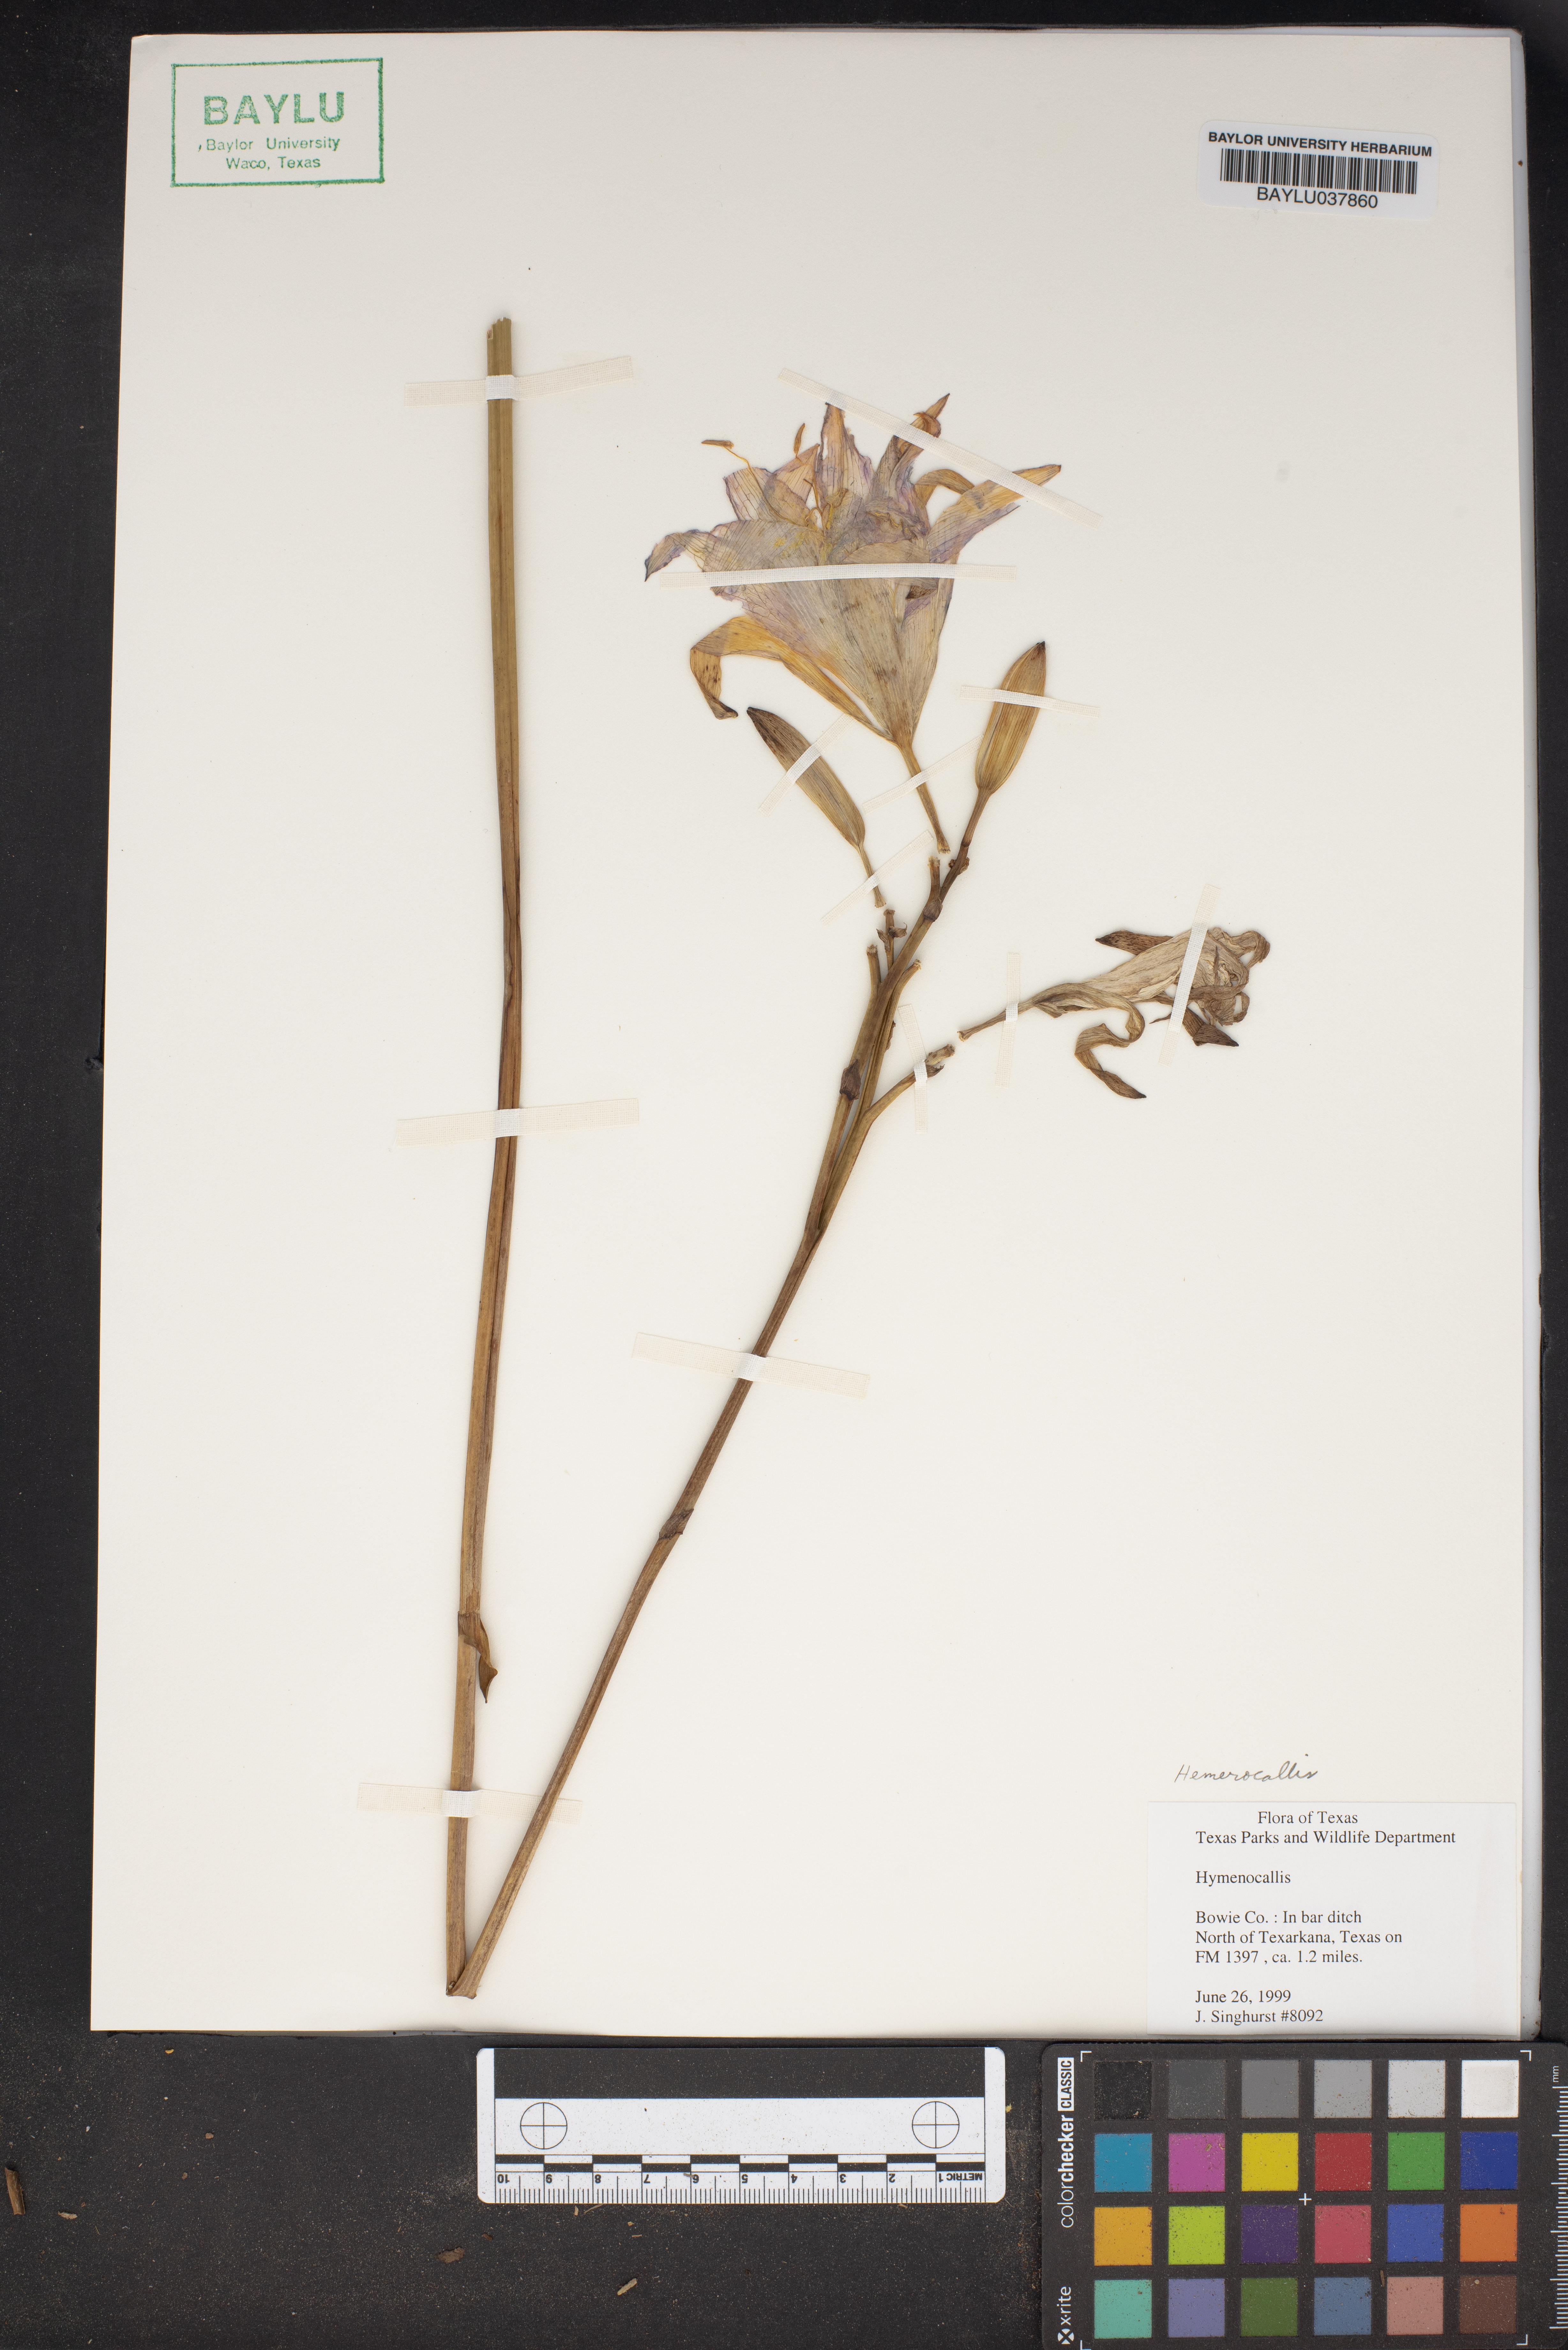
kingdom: Plantae
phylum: Tracheophyta
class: Liliopsida
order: Asparagales
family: Amaryllidaceae
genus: Hymenocallis
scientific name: Hymenocallis
